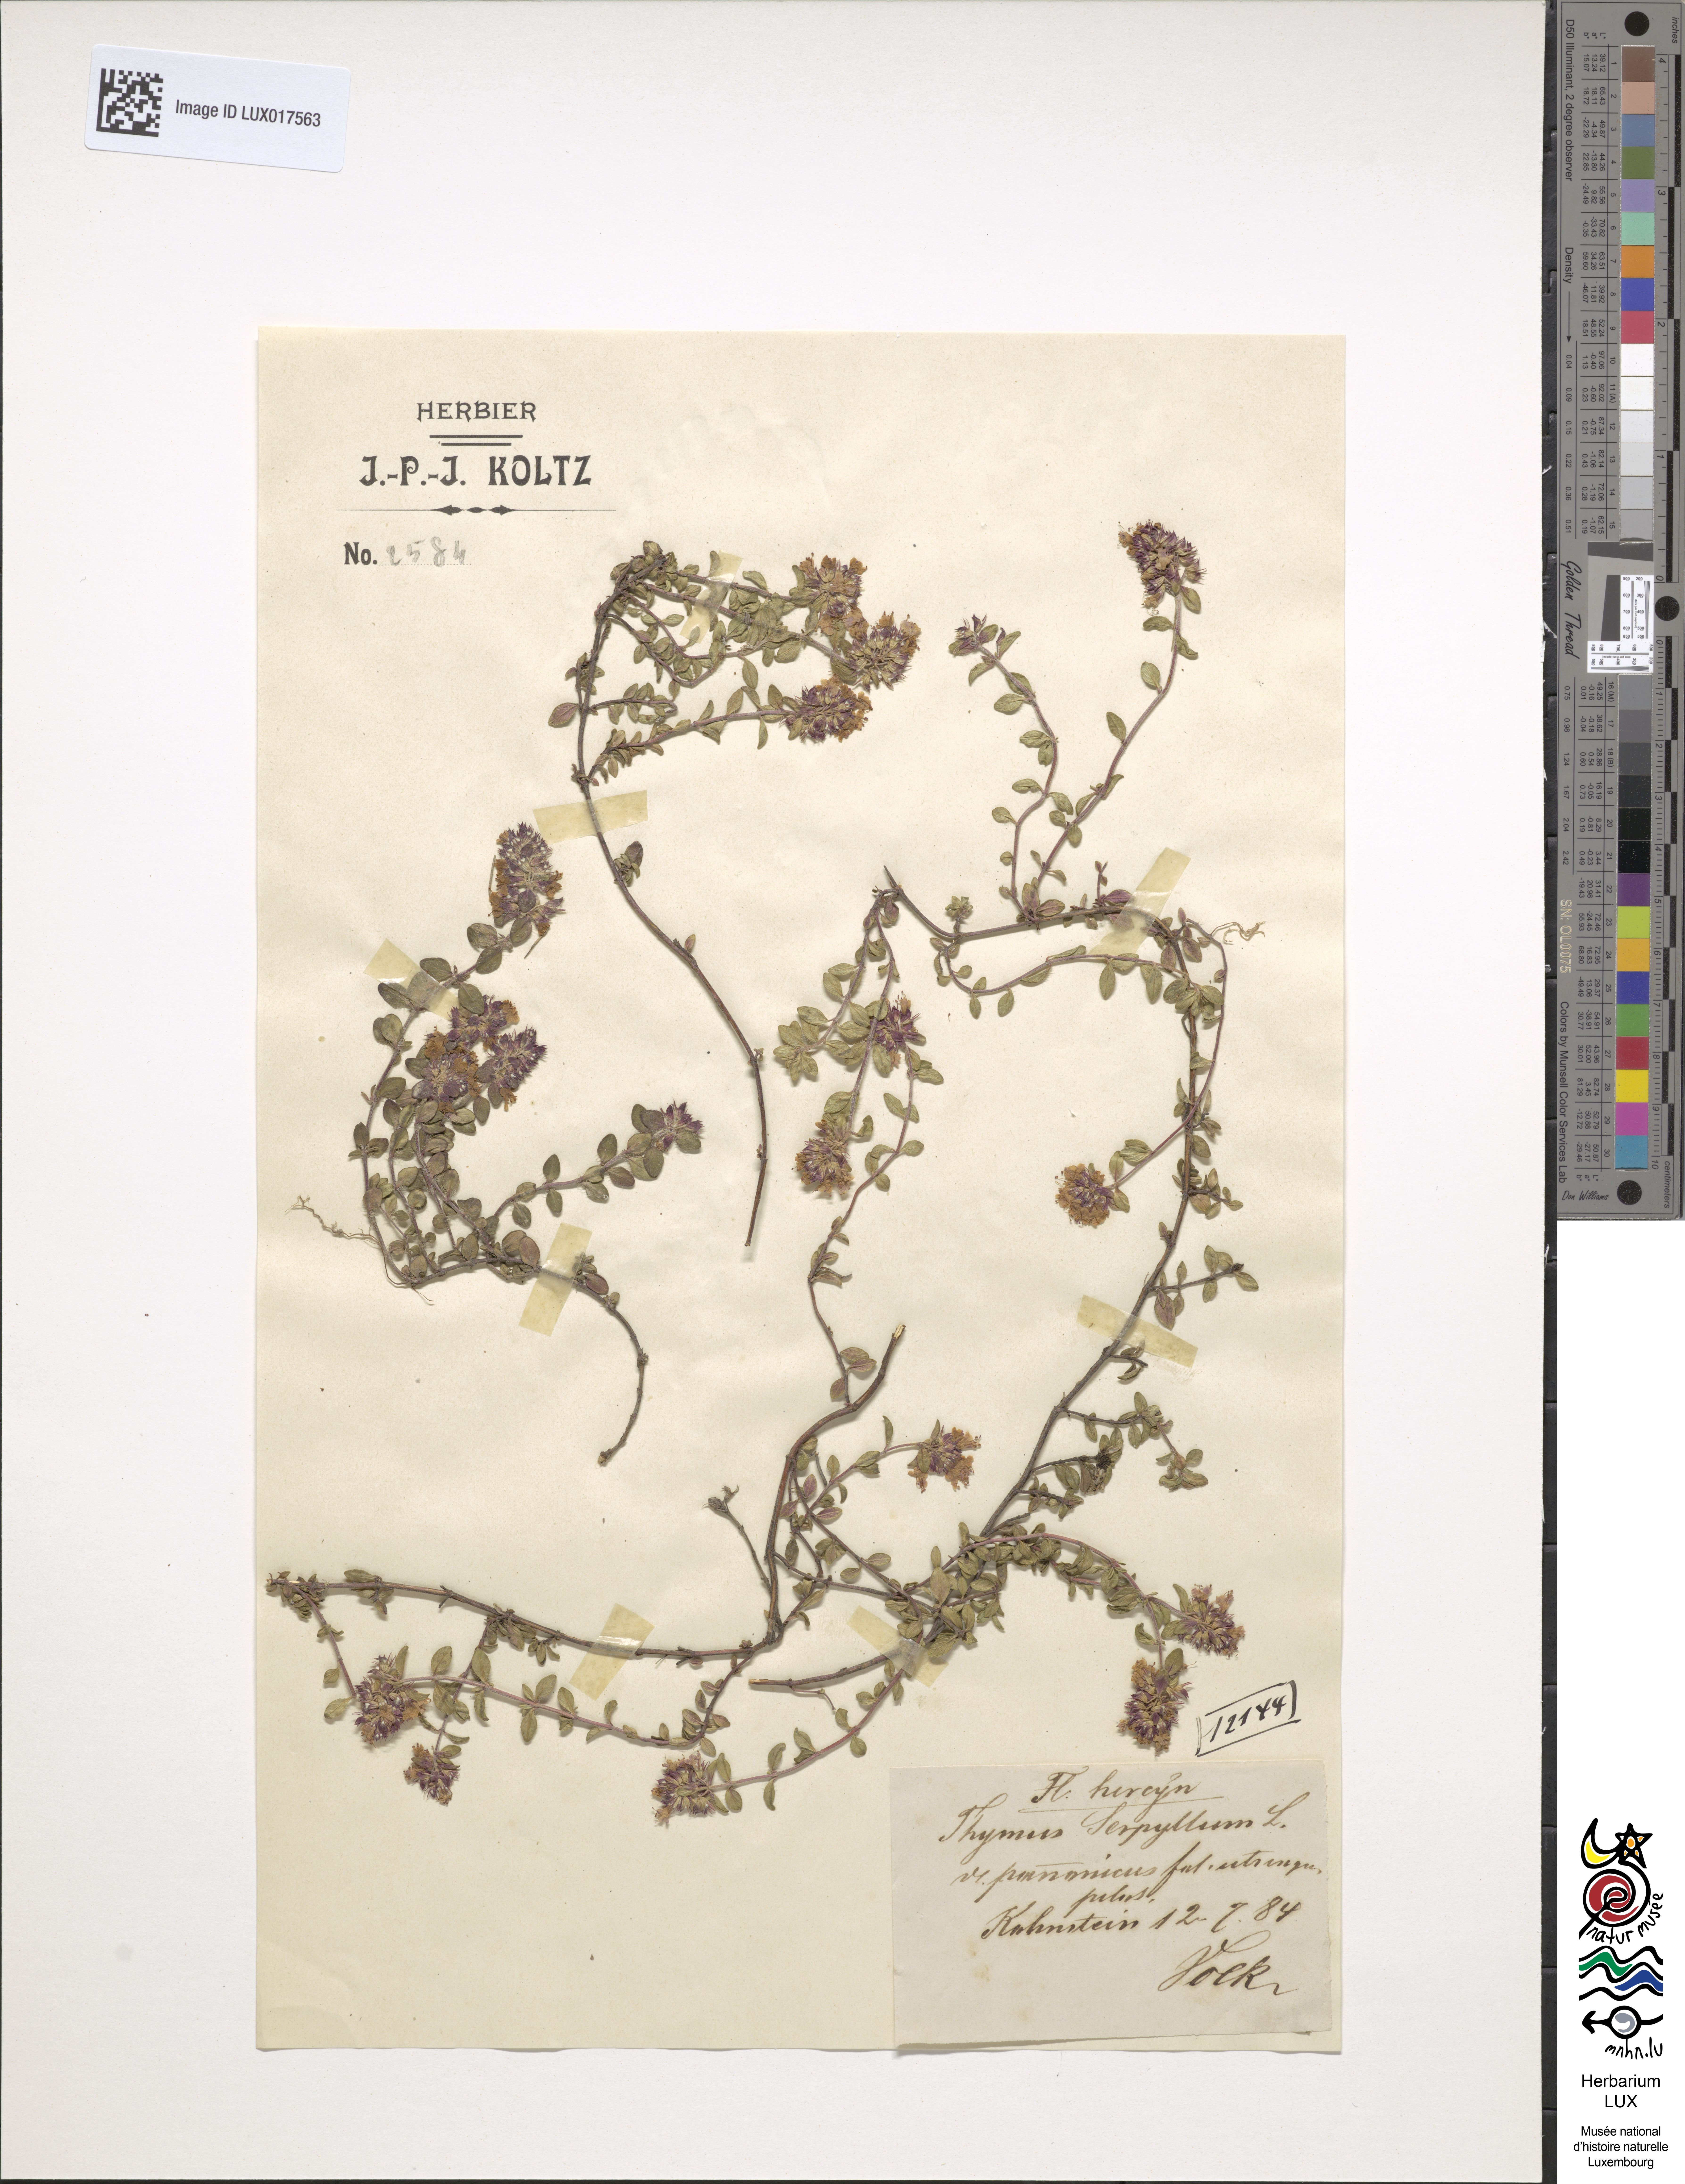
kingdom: Plantae
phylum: Tracheophyta
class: Magnoliopsida
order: Lamiales
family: Lamiaceae
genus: Thymus
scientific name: Thymus pannonicus
